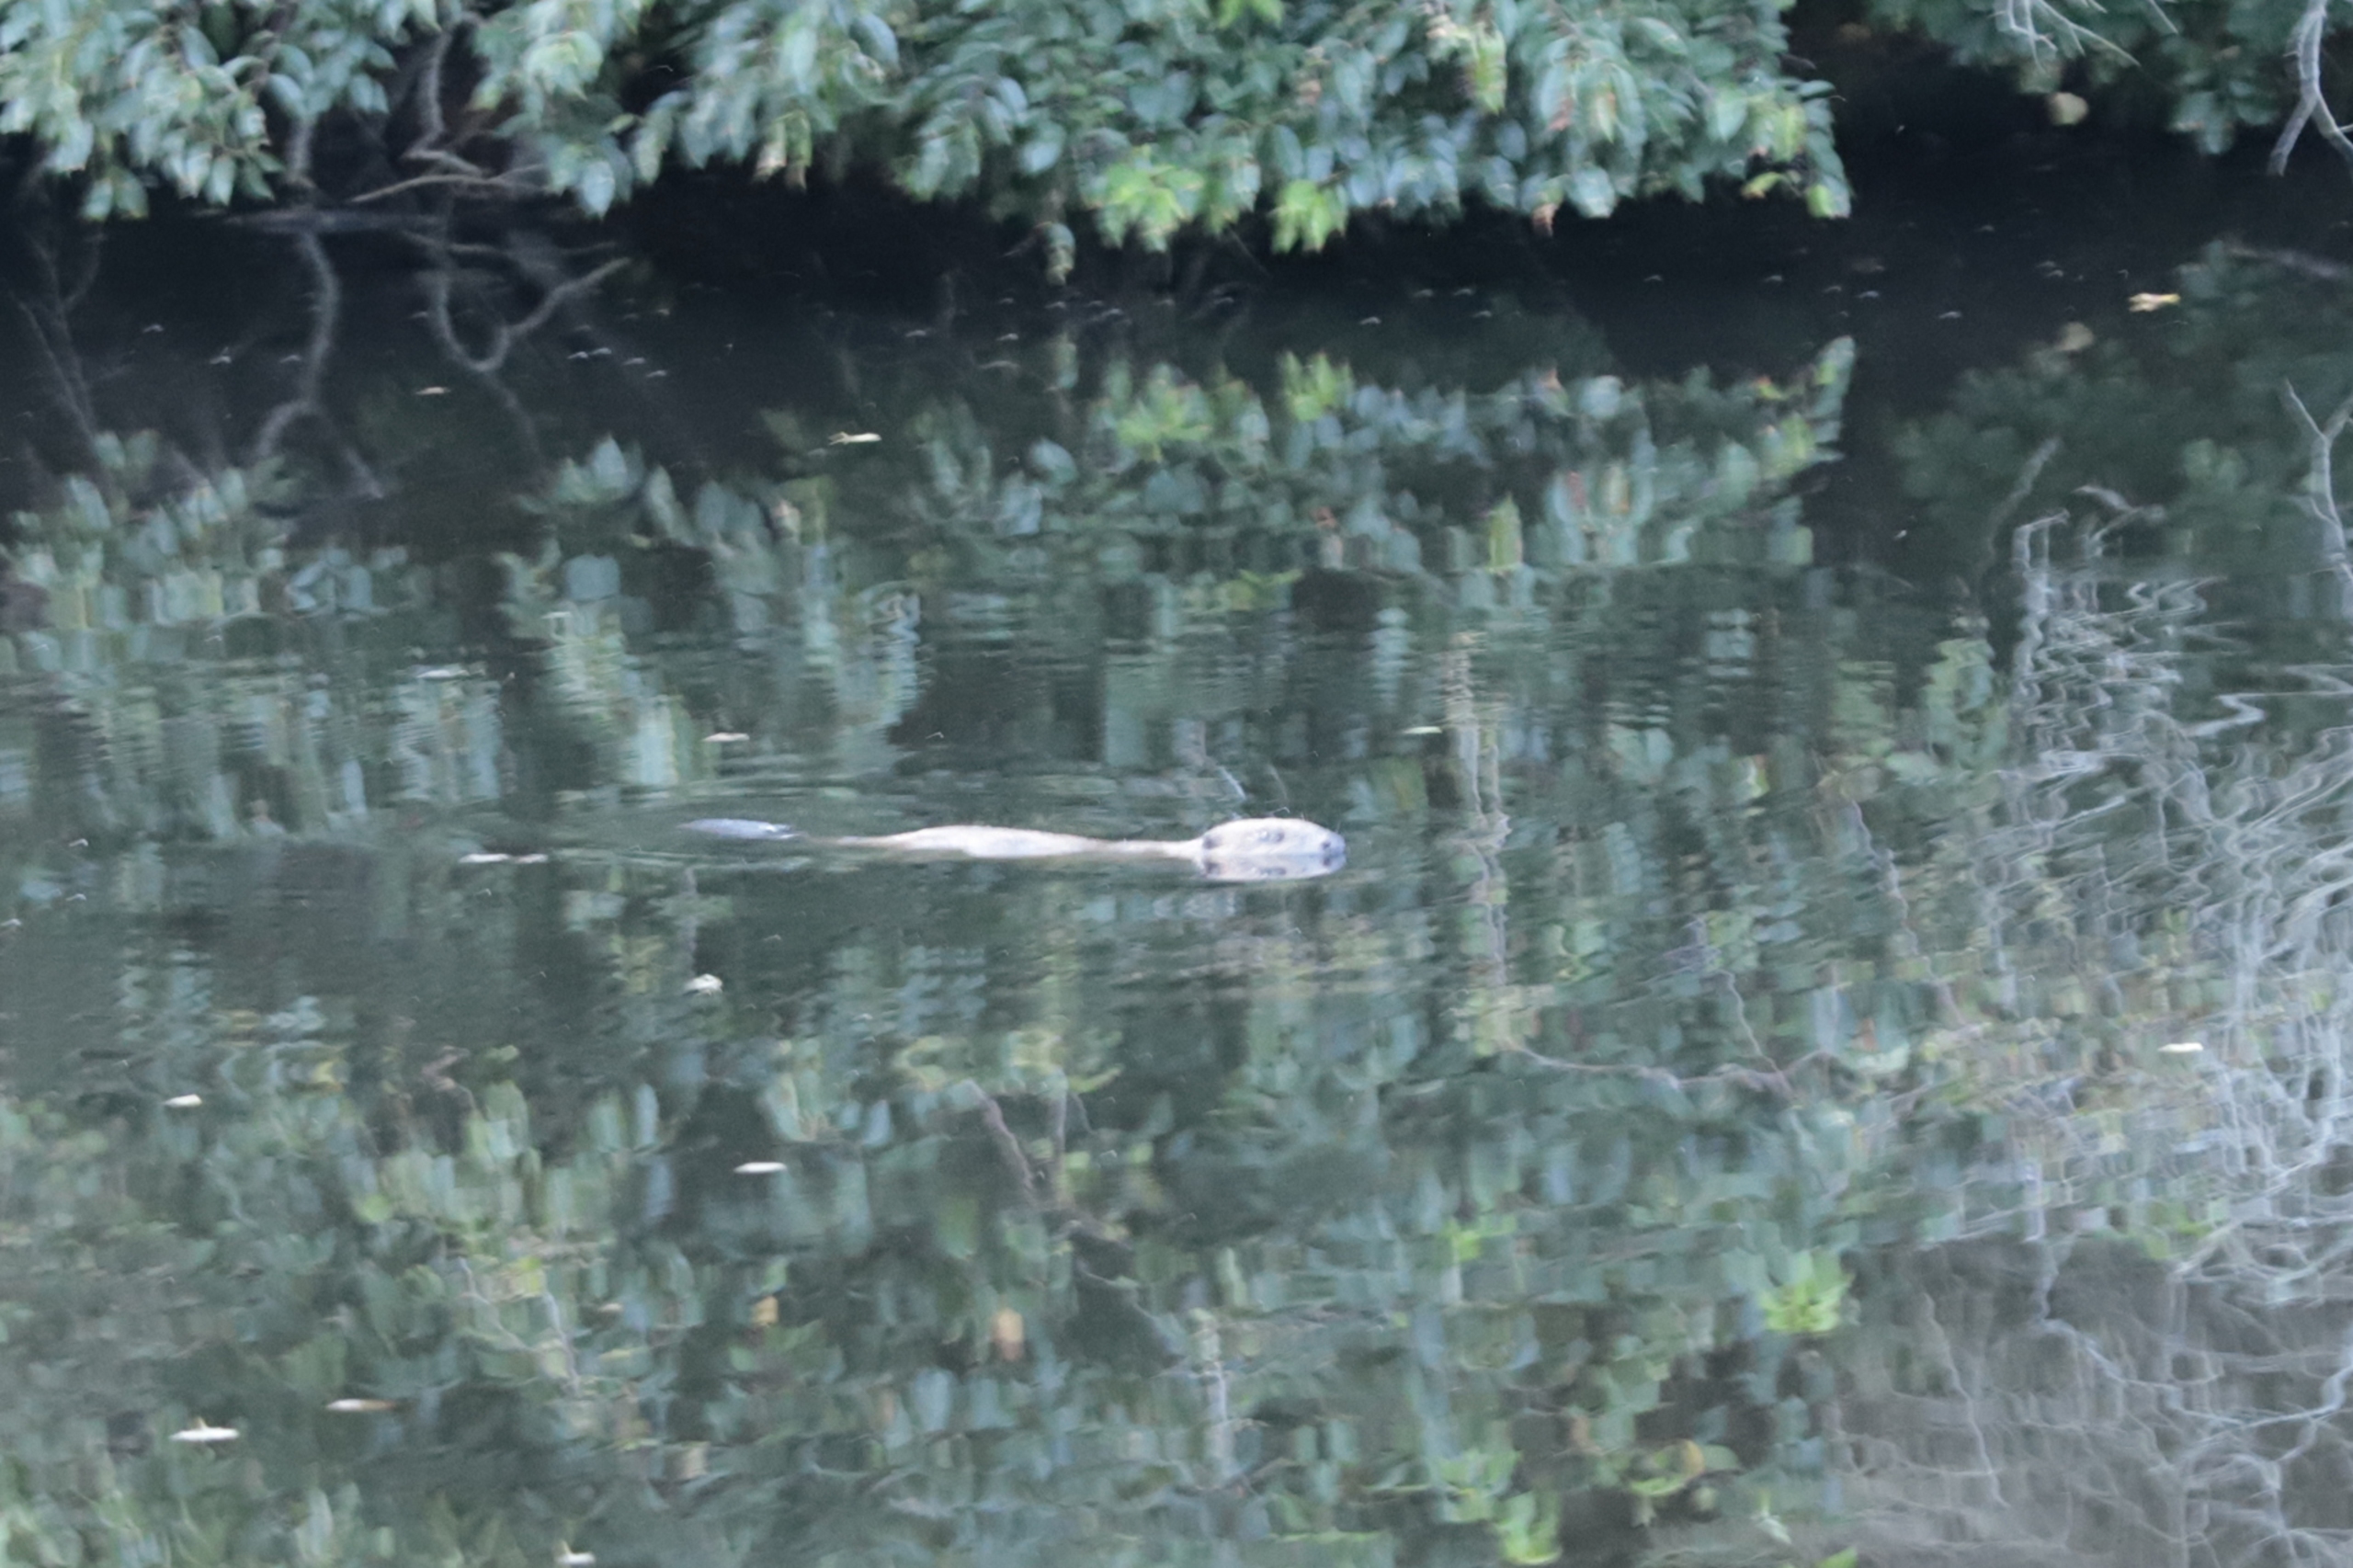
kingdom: Animalia
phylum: Chordata
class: Mammalia
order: Rodentia
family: Castoridae
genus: Castor
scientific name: Castor fiber
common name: Bæver
